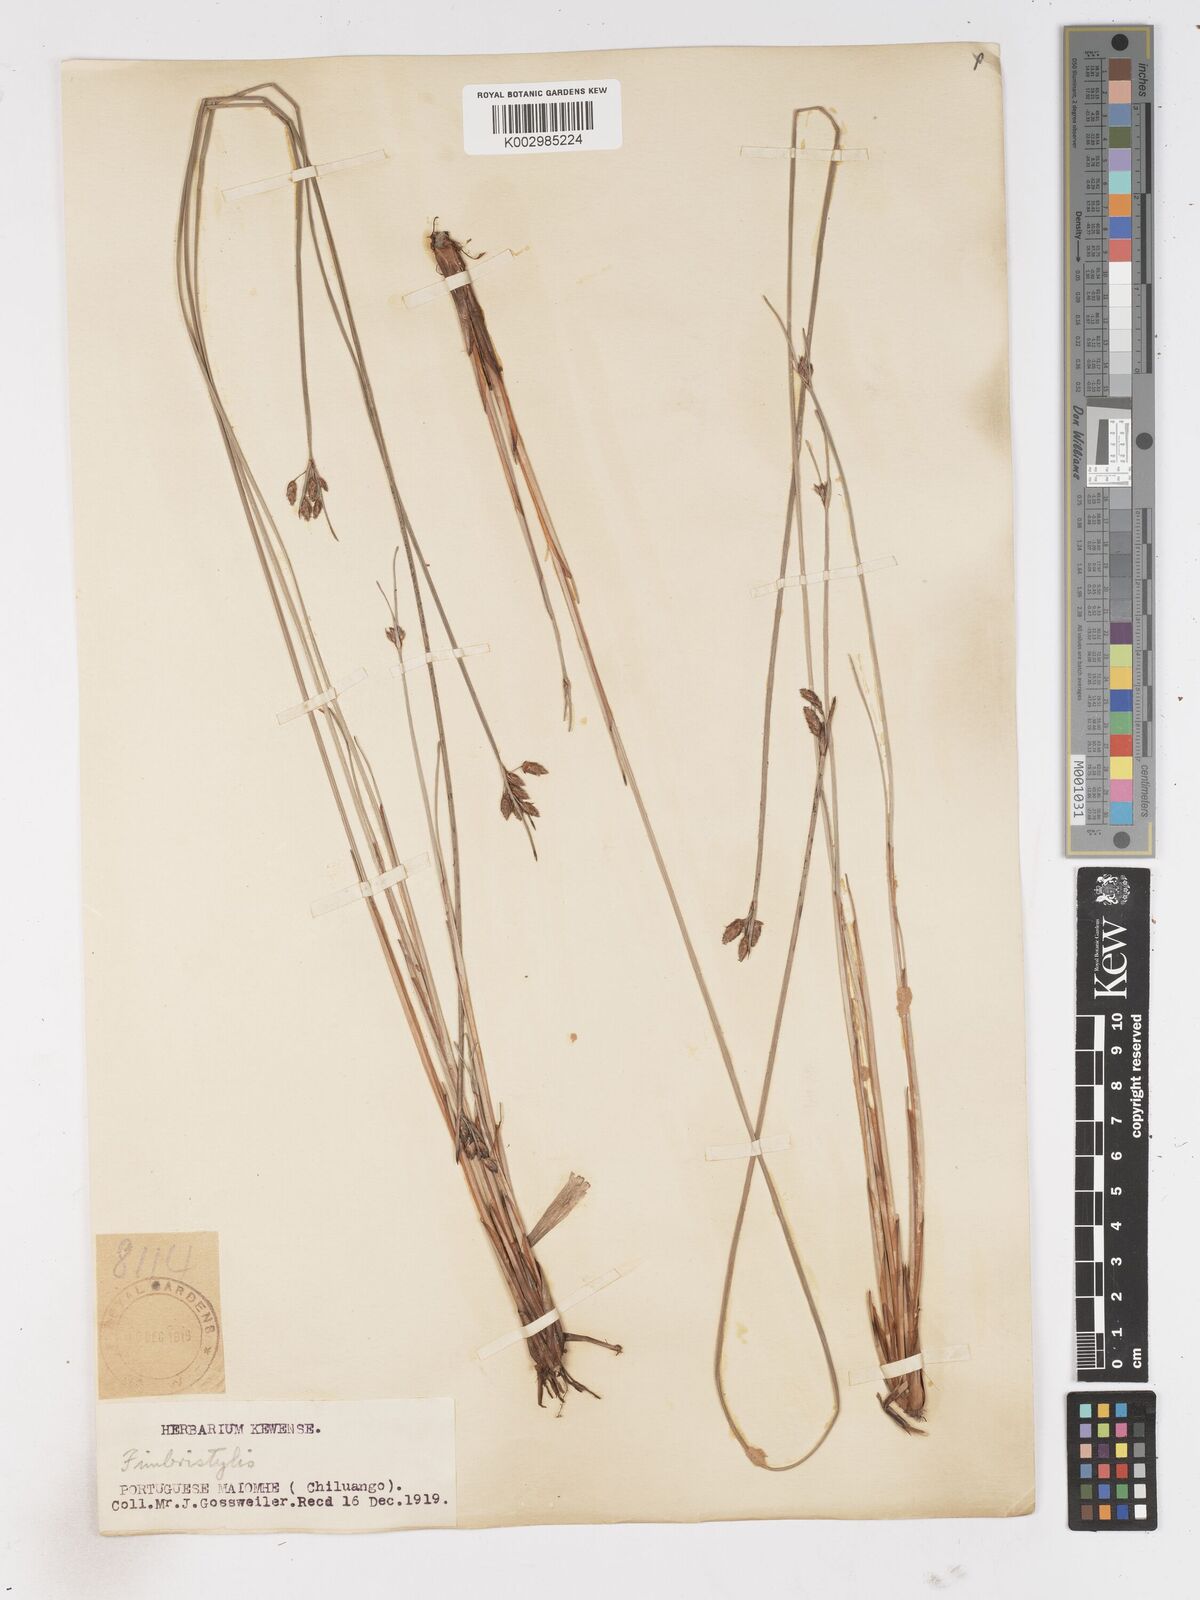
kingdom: Plantae
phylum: Tracheophyta
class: Liliopsida
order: Poales
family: Cyperaceae
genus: Fimbristylis
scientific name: Fimbristylis ferruginea
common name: West indian fimbry
